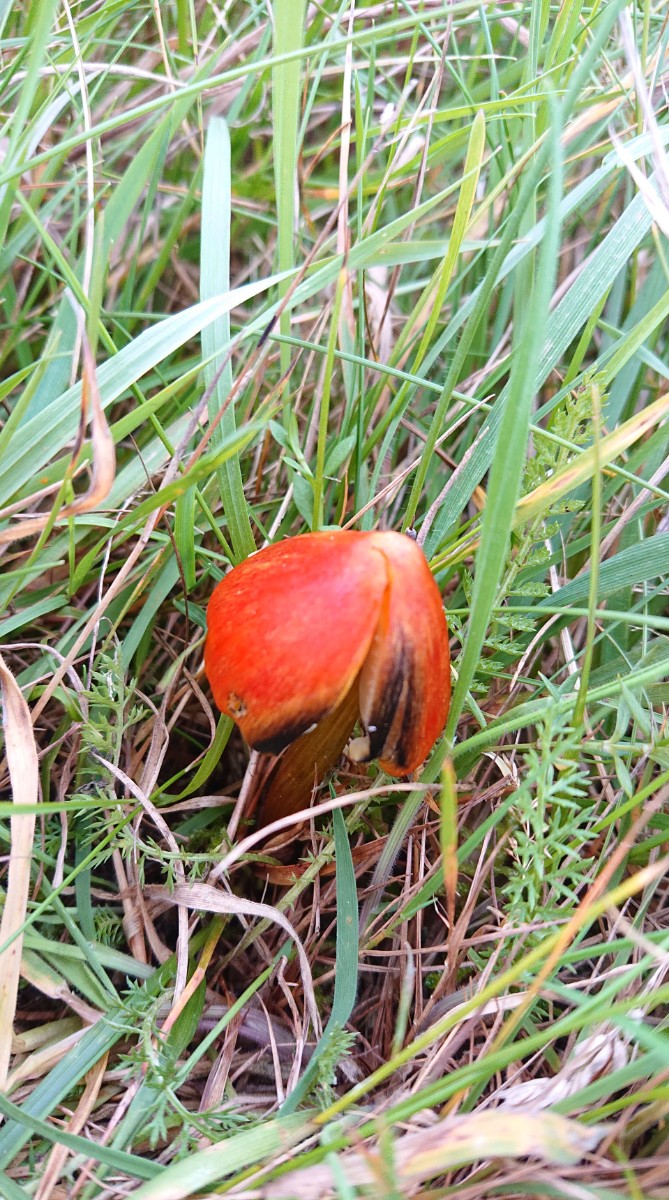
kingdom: Fungi
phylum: Basidiomycota
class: Agaricomycetes
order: Agaricales
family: Hygrophoraceae
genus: Hygrocybe
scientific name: Hygrocybe conica
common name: kegle-vokshat
